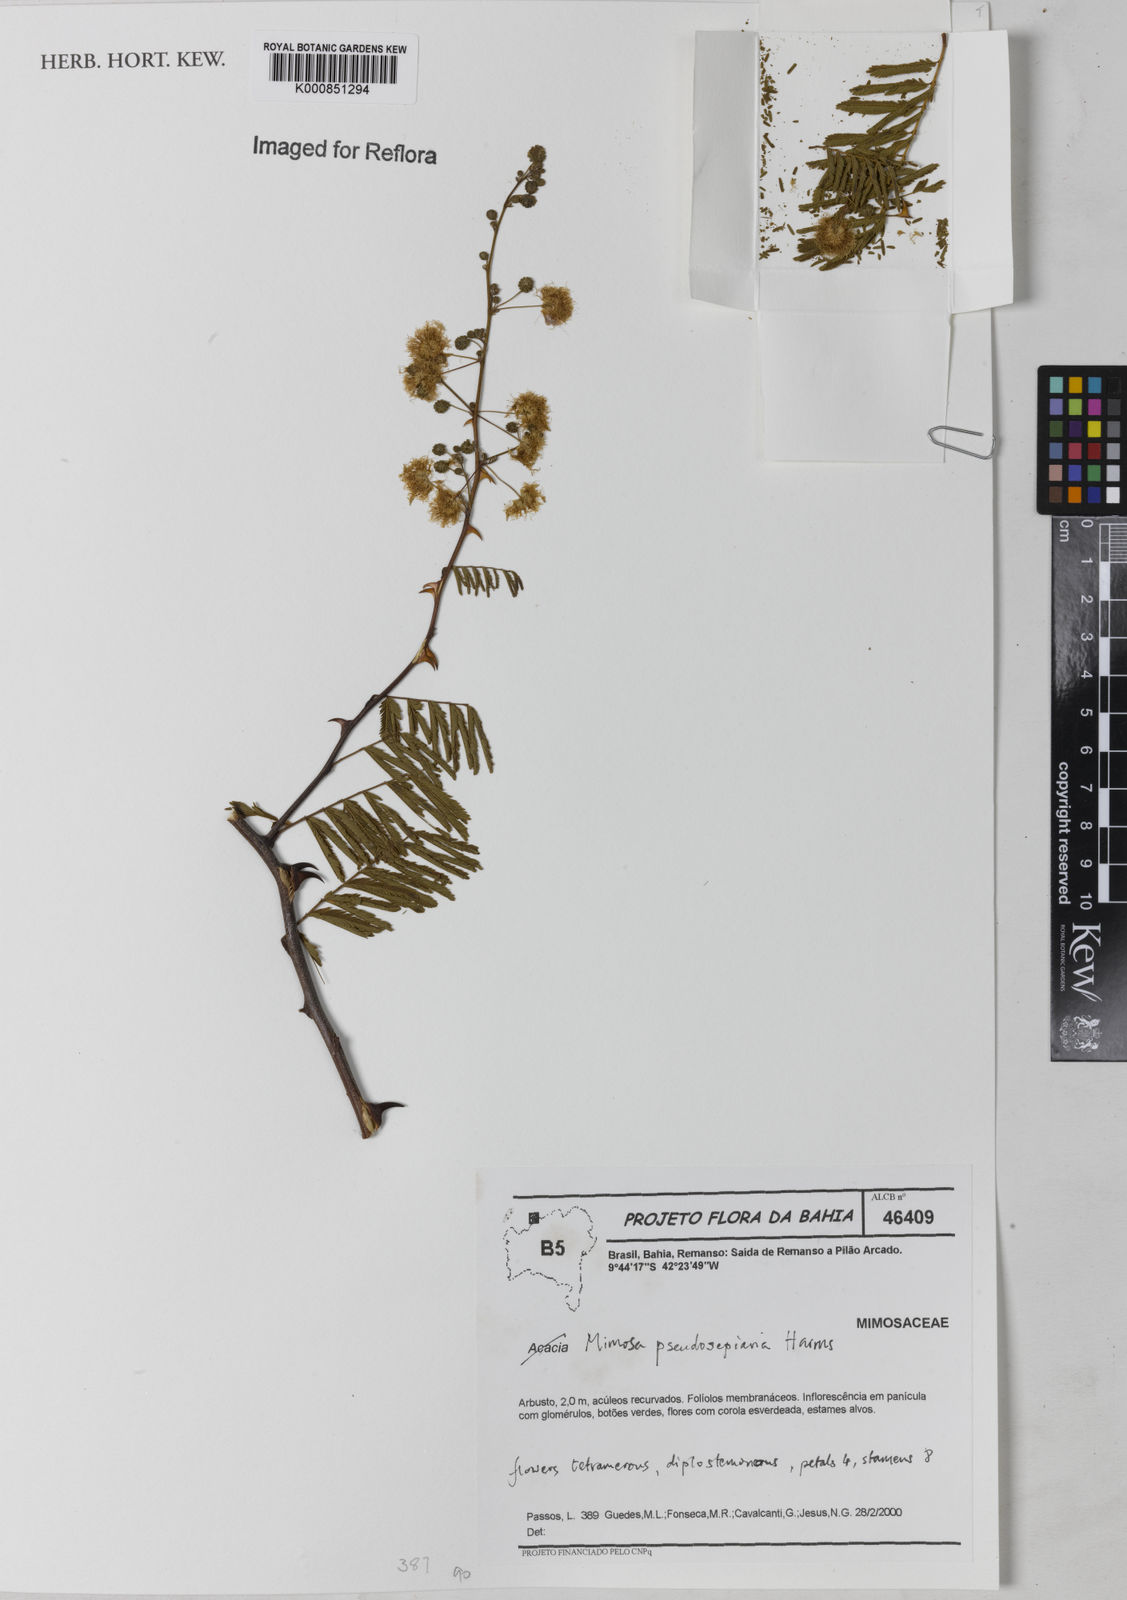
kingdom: Plantae
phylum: Tracheophyta
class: Magnoliopsida
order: Fabales
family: Fabaceae
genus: Mimosa
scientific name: Mimosa pseudosepiaria
